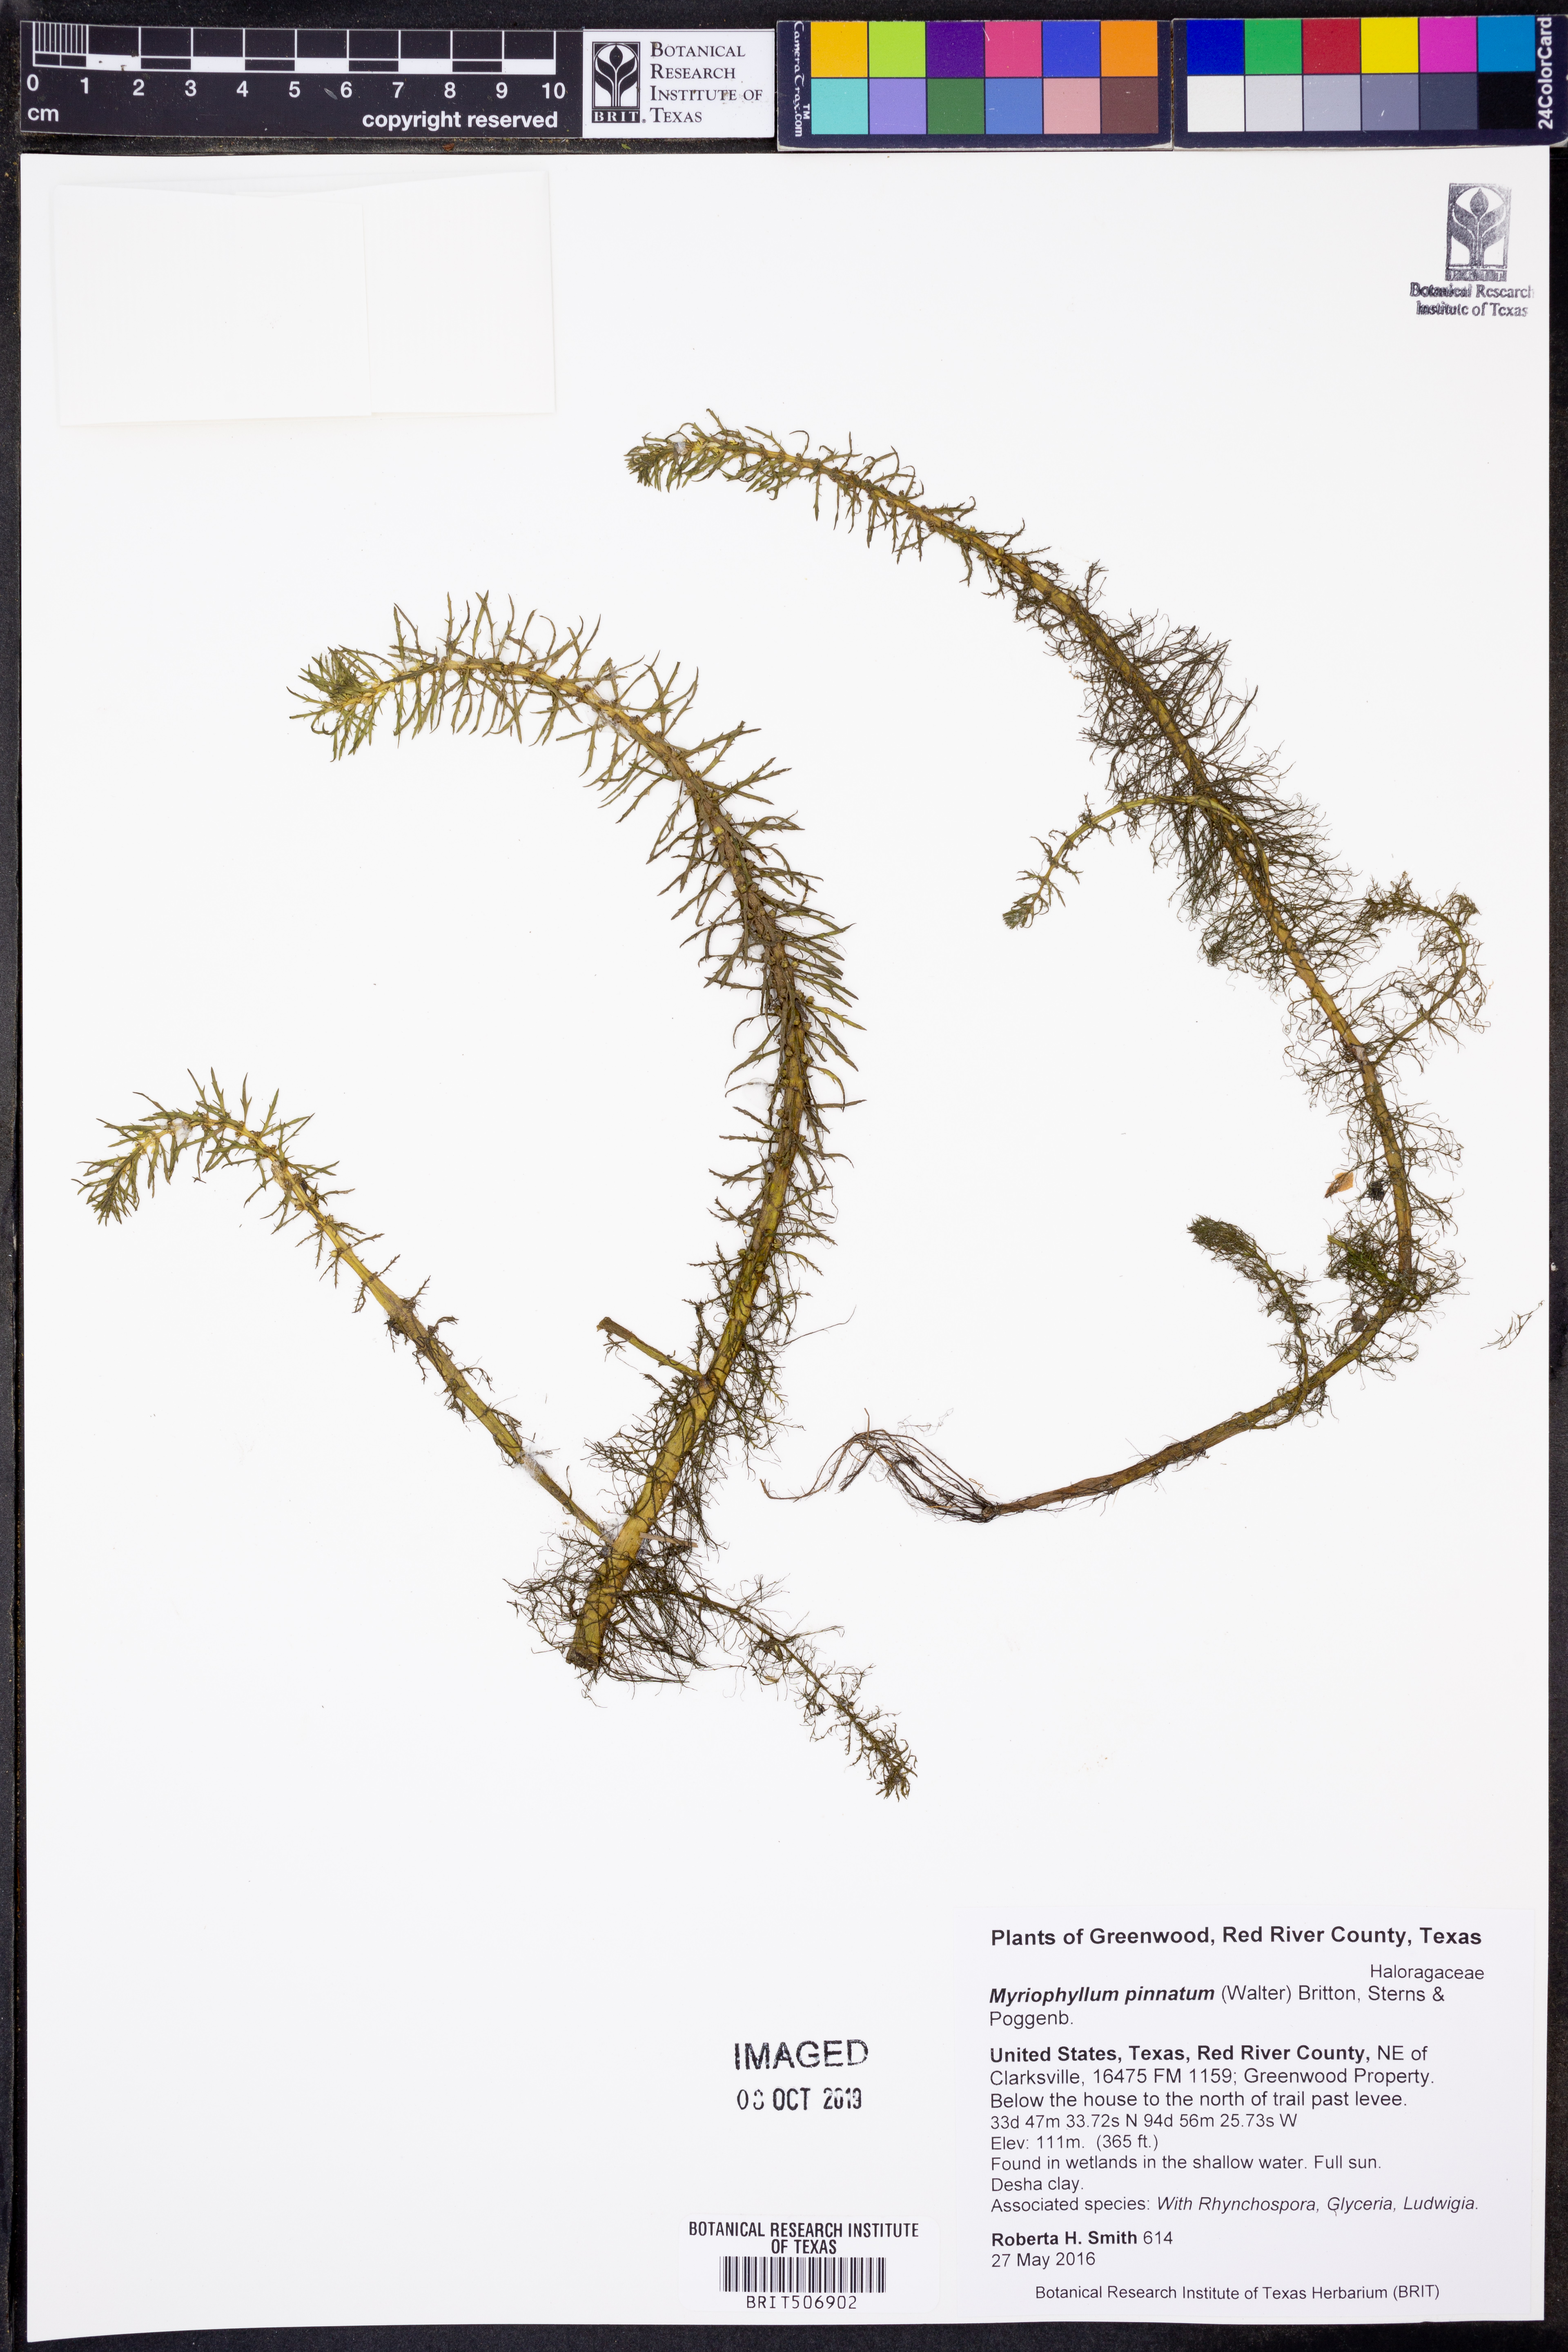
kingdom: Plantae
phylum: Tracheophyta
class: Magnoliopsida
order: Saxifragales
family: Haloragaceae
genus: Myriophyllum
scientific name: Myriophyllum pinnatum
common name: Cut-leaved water-milfoil
